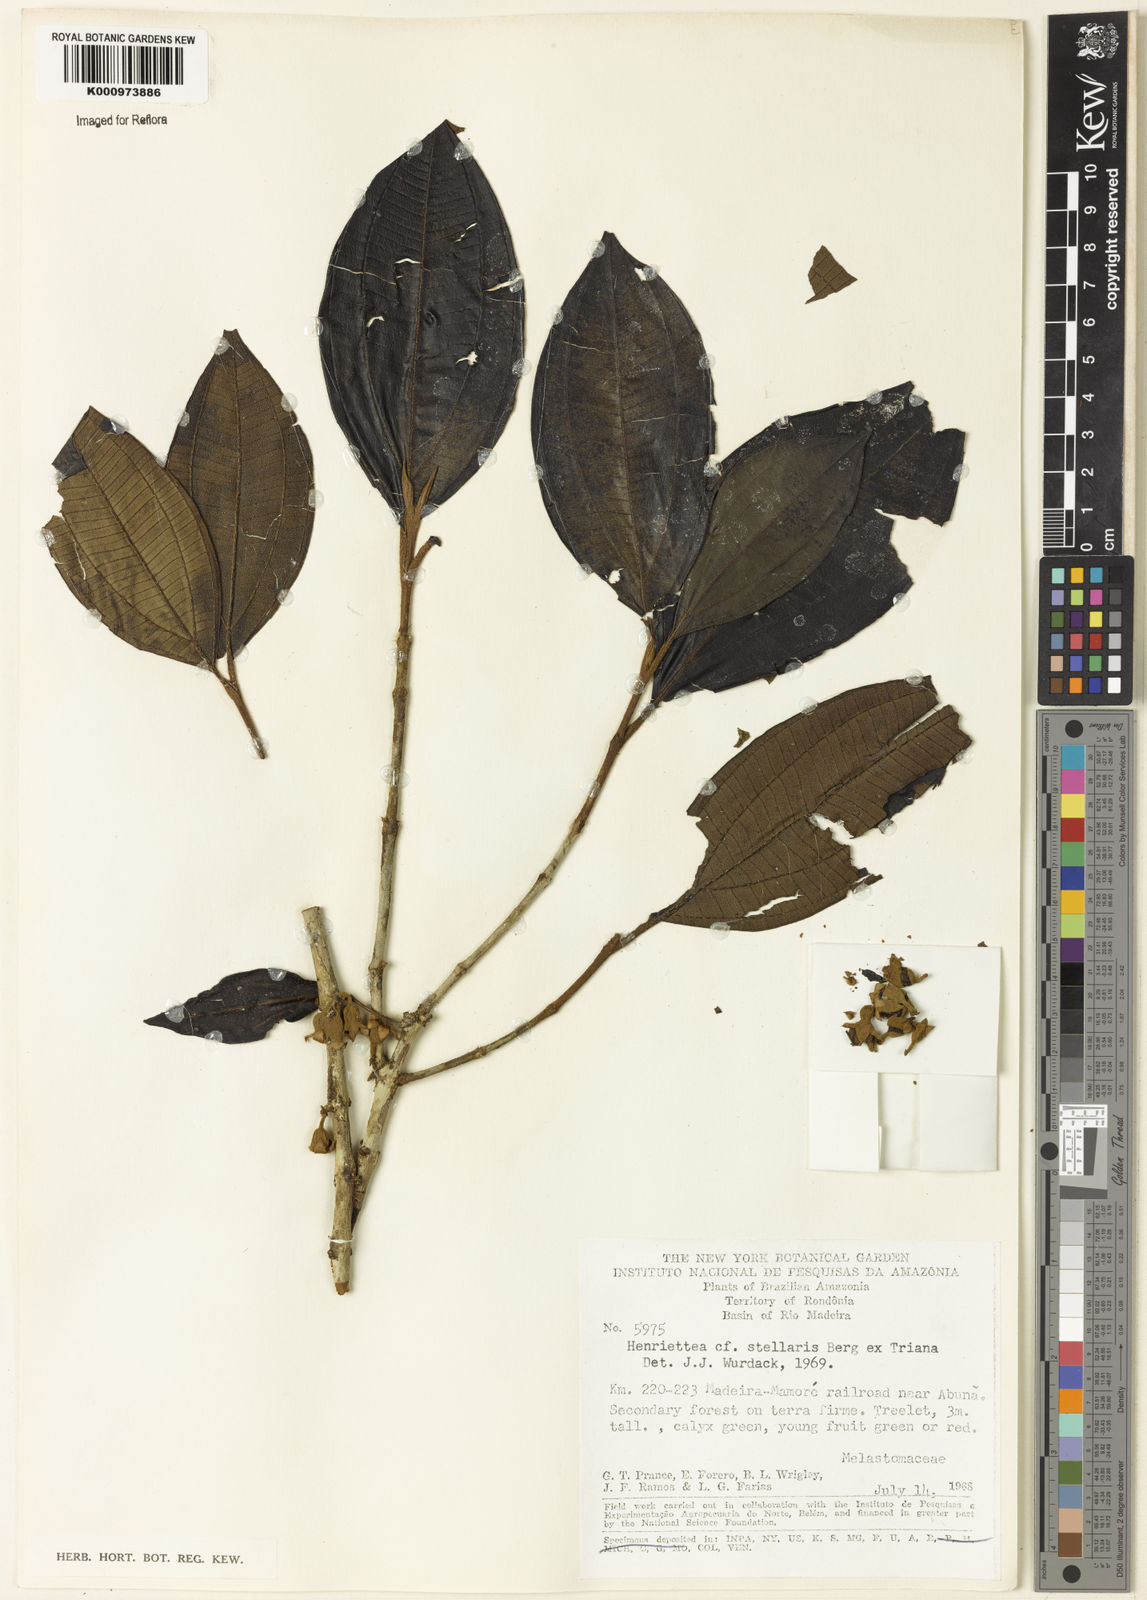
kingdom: Plantae
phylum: Tracheophyta
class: Magnoliopsida
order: Myrtales
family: Melastomataceae
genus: Henriettea
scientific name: Henriettea stellaris
